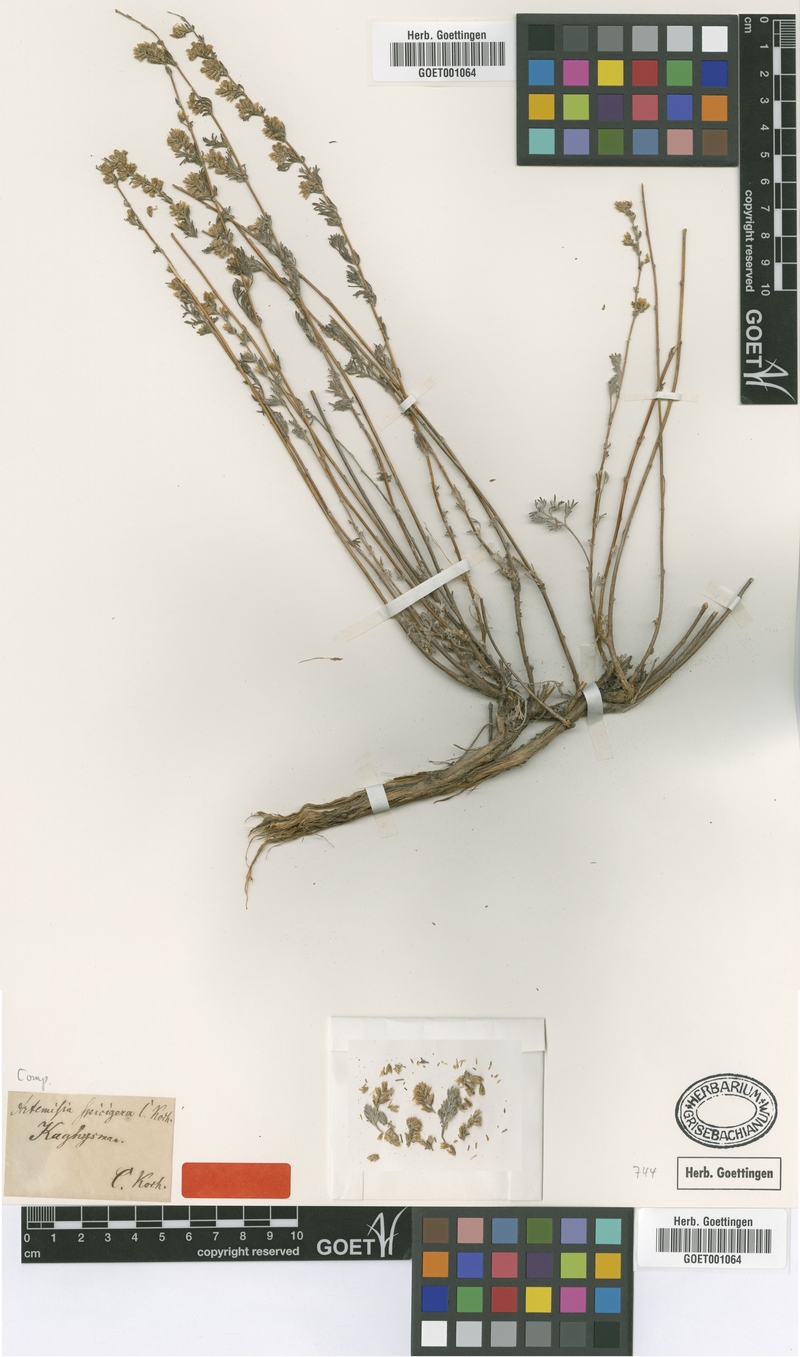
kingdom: Plantae
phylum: Tracheophyta
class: Magnoliopsida
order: Asterales
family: Asteraceae
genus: Artemisia
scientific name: Artemisia spicigera
